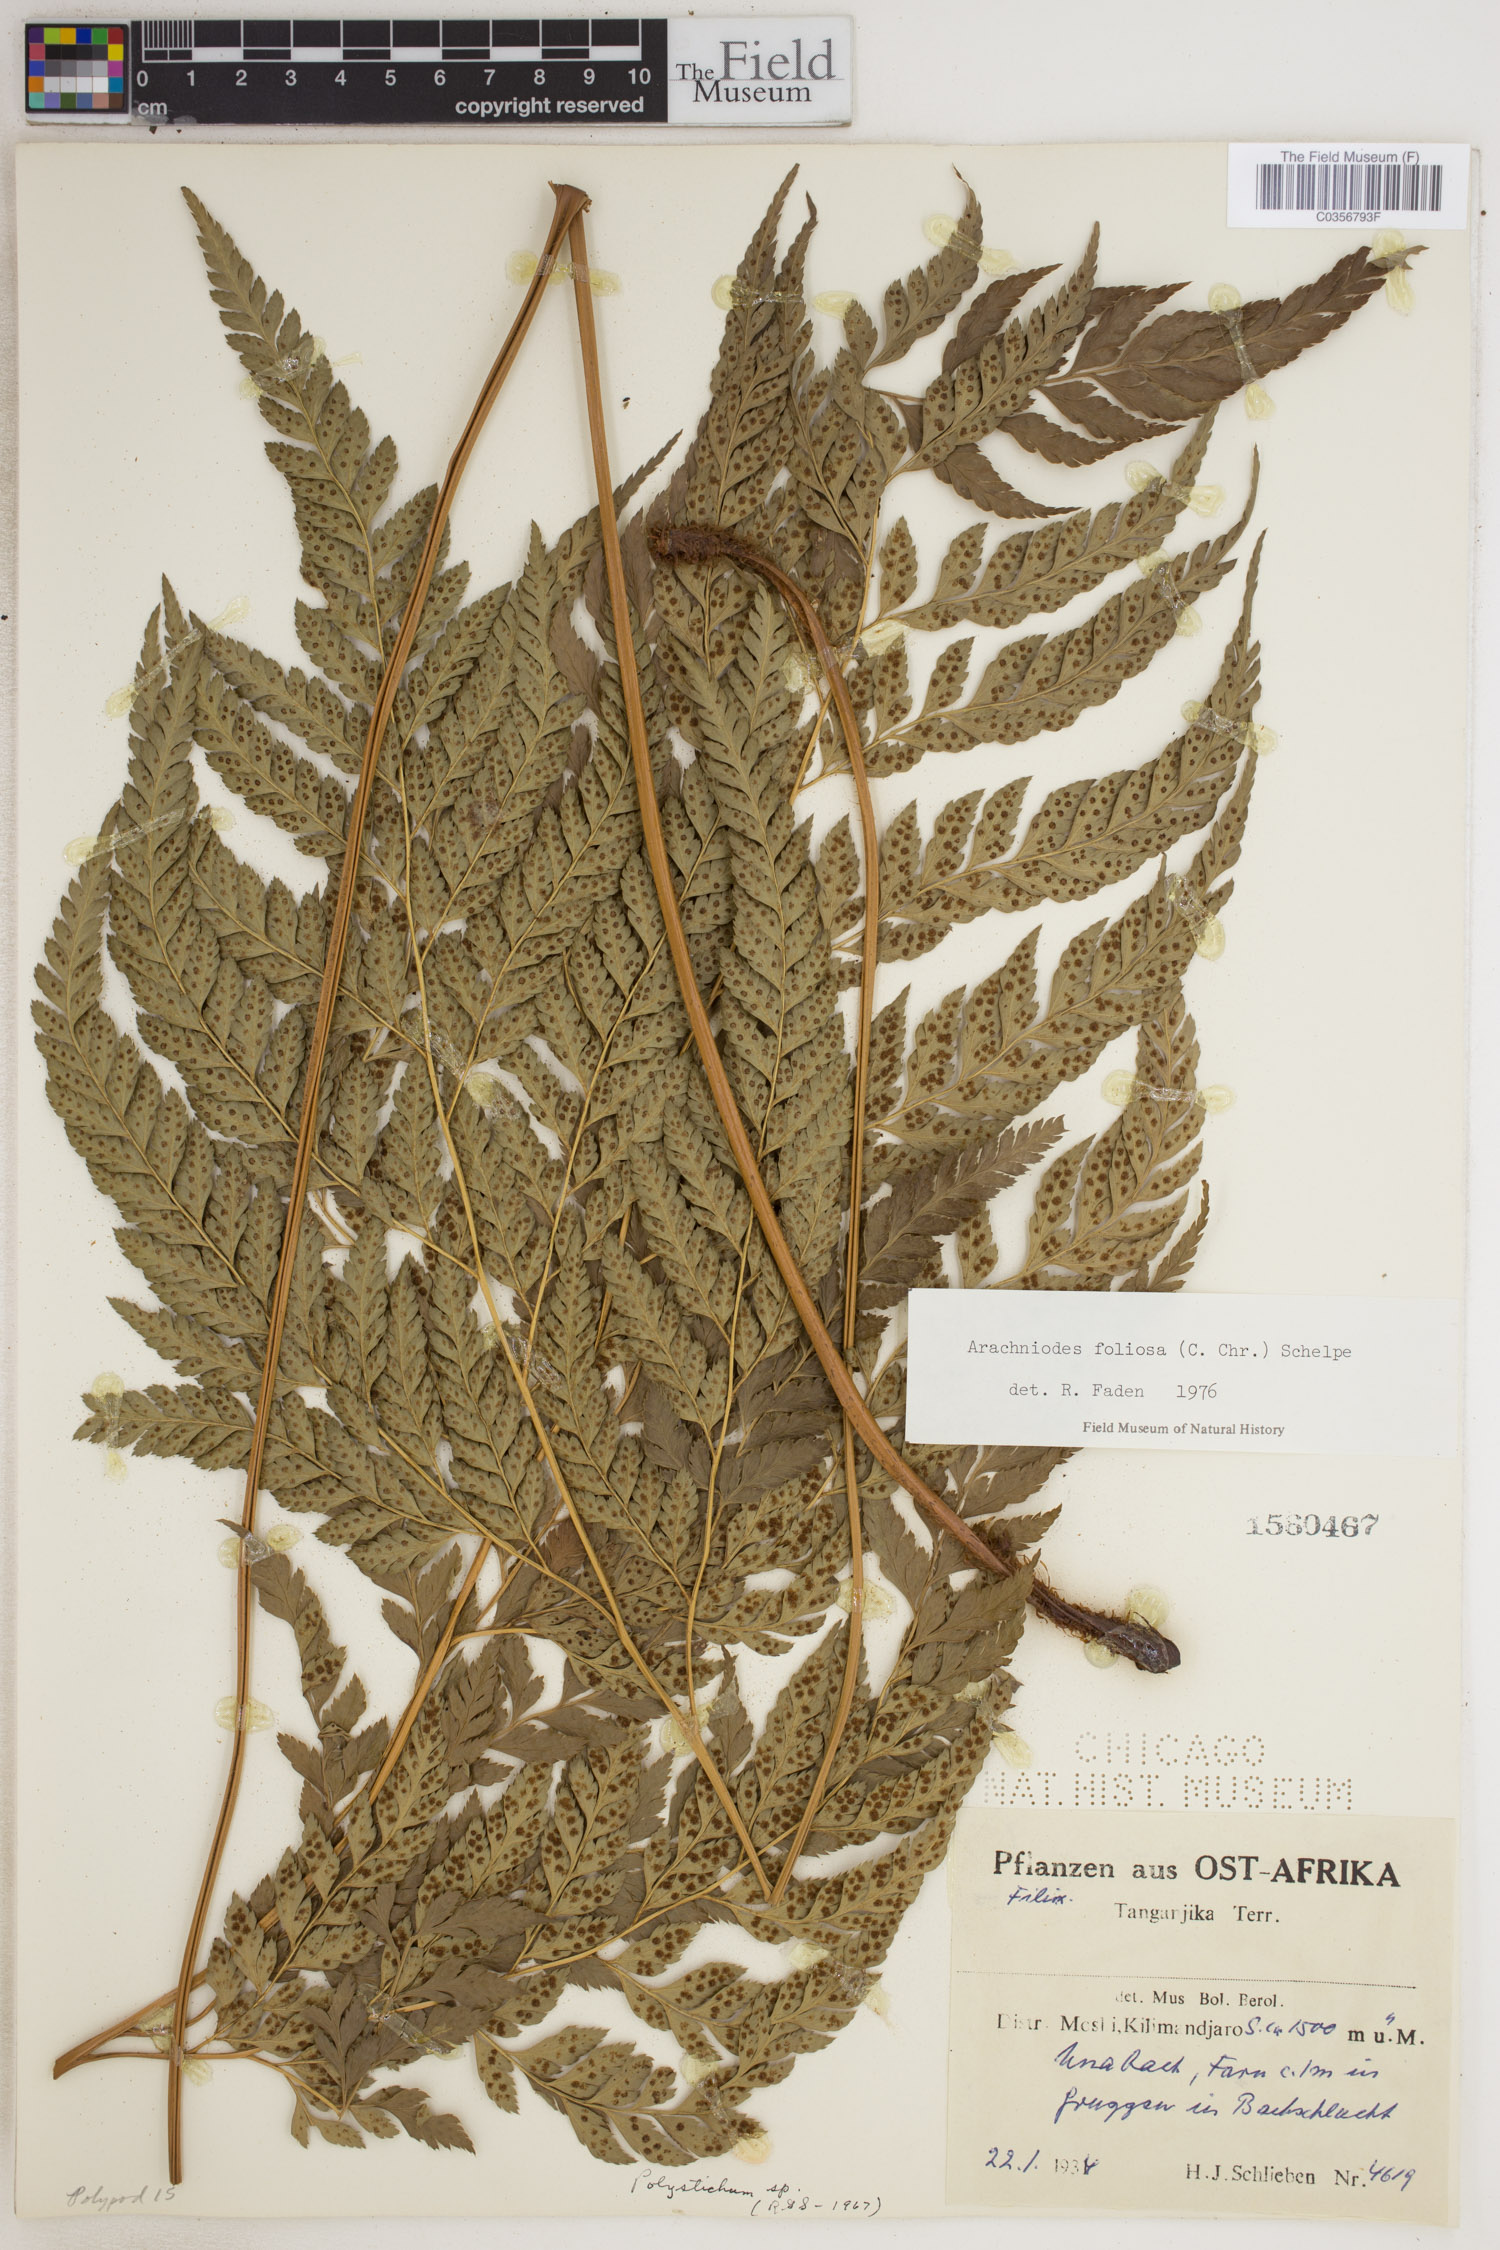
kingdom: Plantae
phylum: Tracheophyta
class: Polypodiopsida
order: Polypodiales
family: Dryopteridaceae
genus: Arachniodes
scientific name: Arachniodes webbiana
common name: Madeira holly fern
